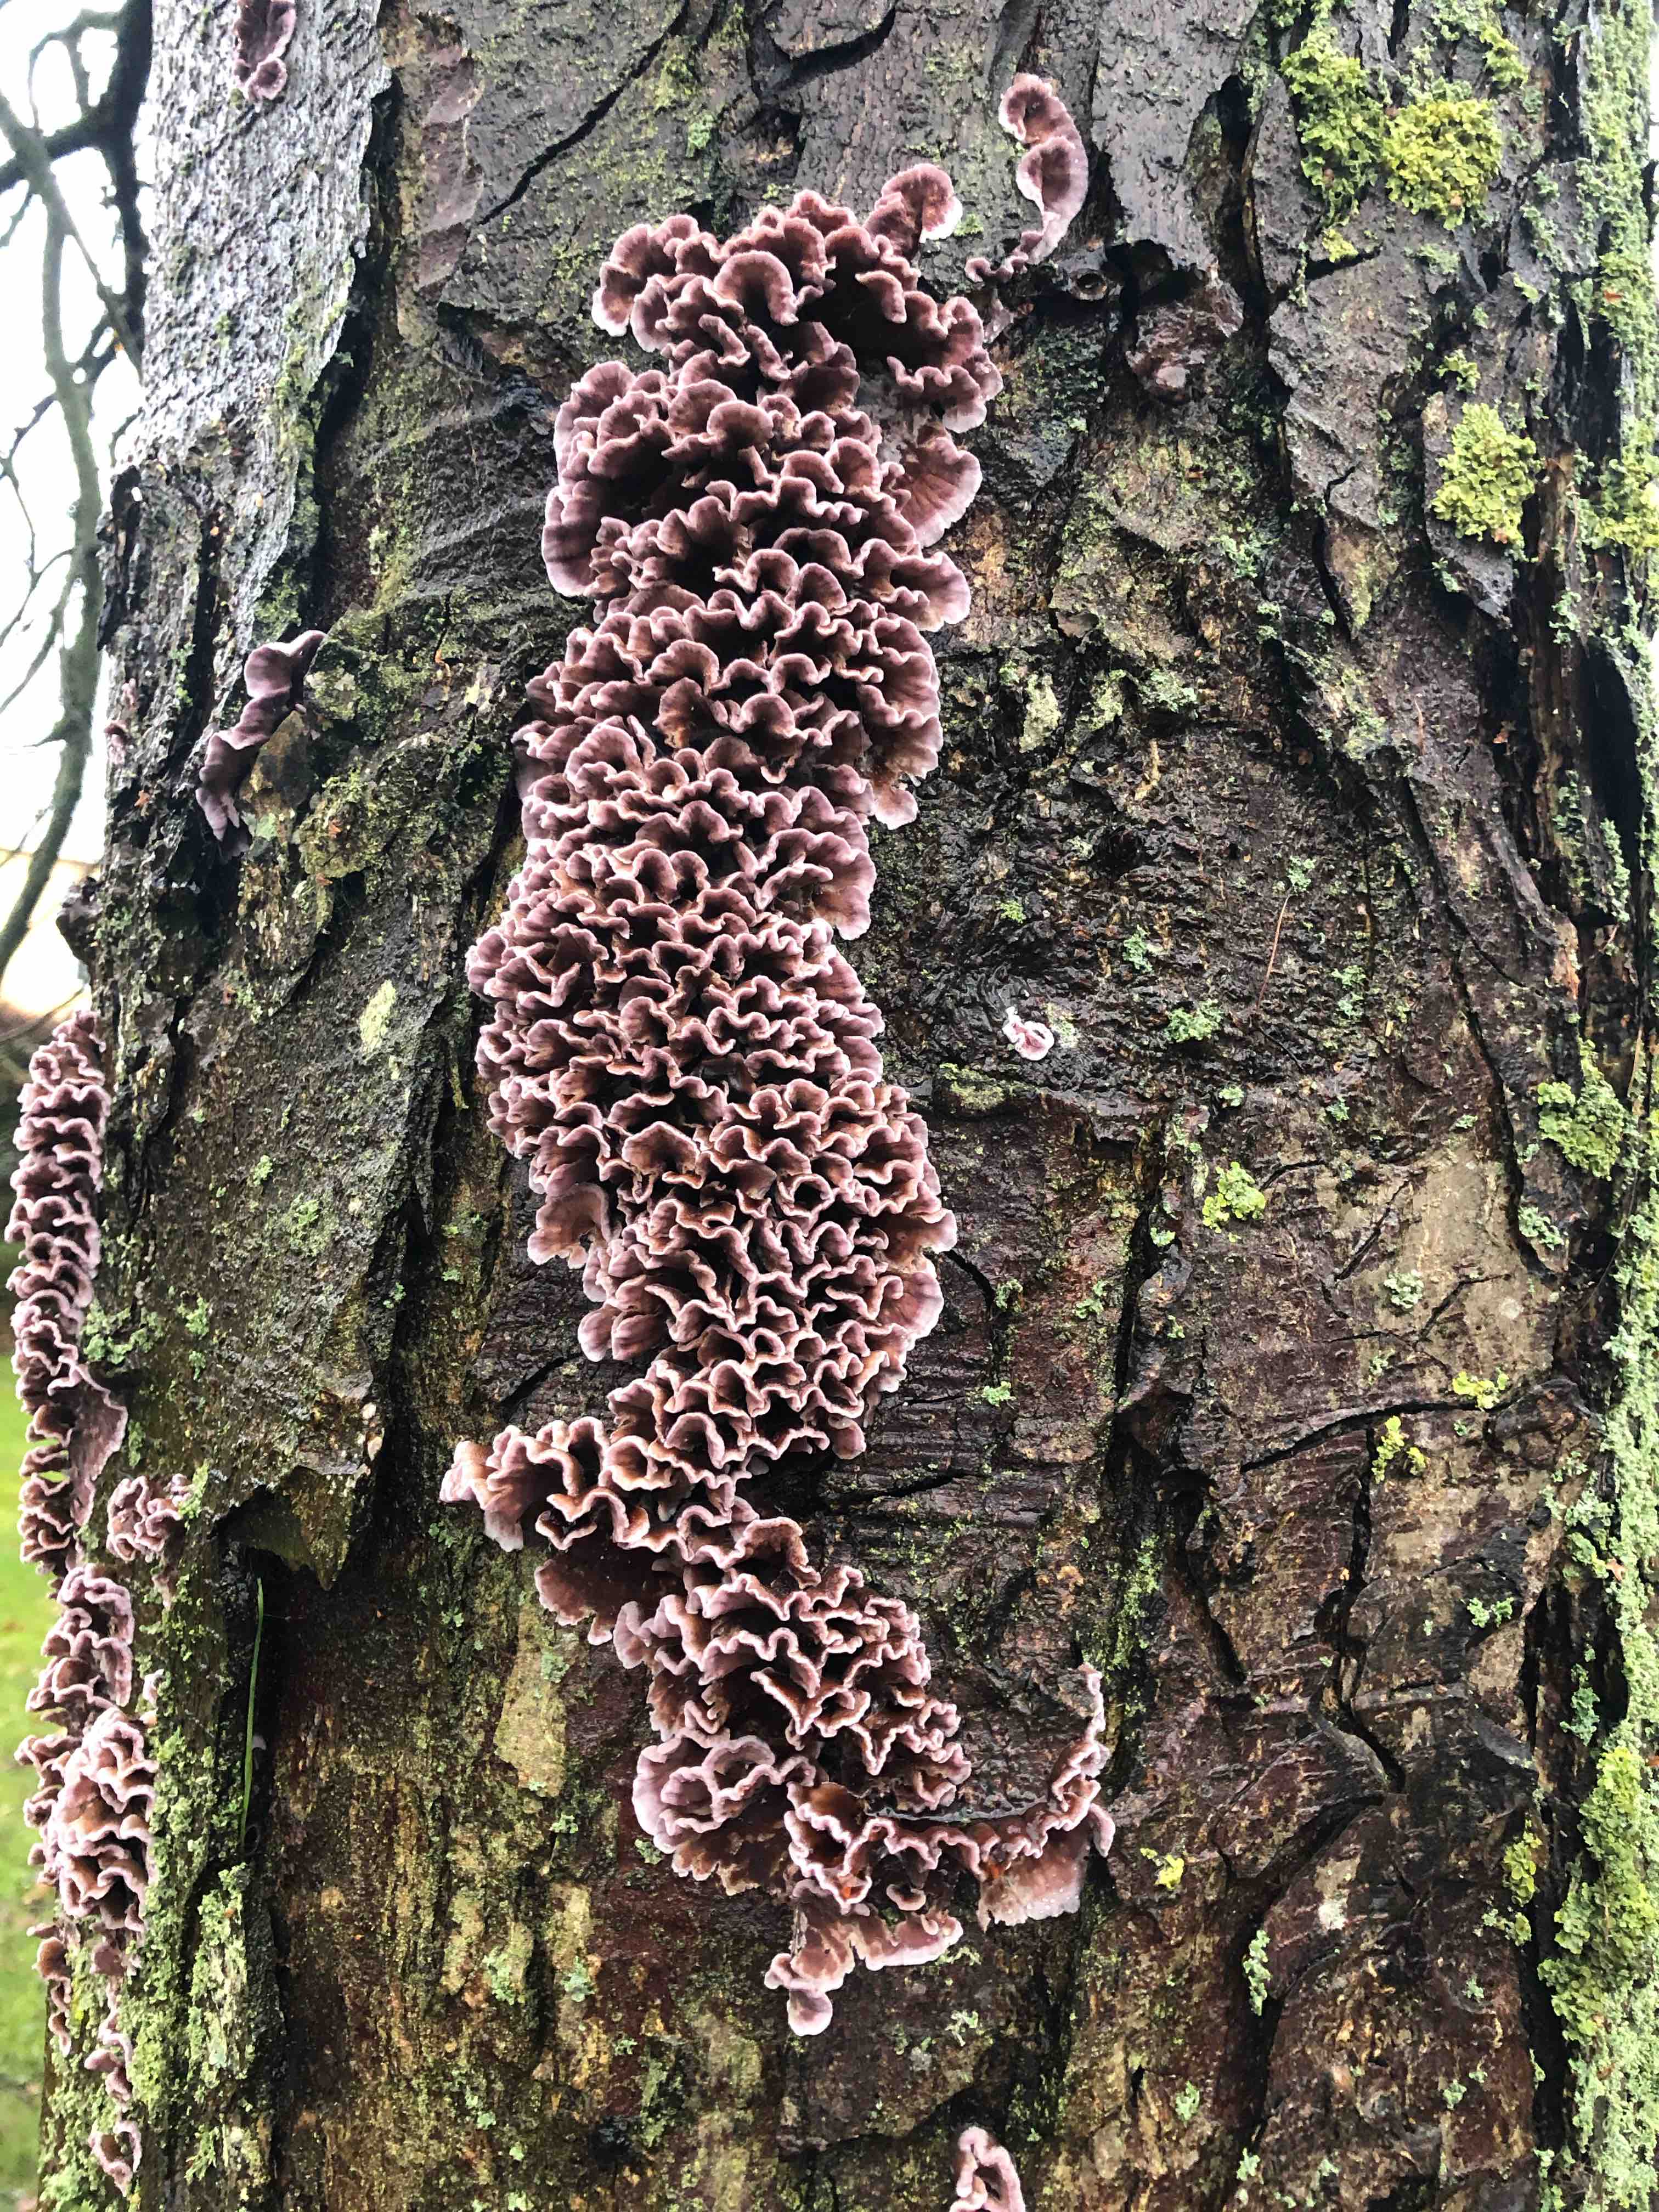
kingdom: Fungi
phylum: Basidiomycota
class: Agaricomycetes
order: Agaricales
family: Cyphellaceae
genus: Chondrostereum
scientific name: Chondrostereum purpureum
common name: purpurlædersvamp
